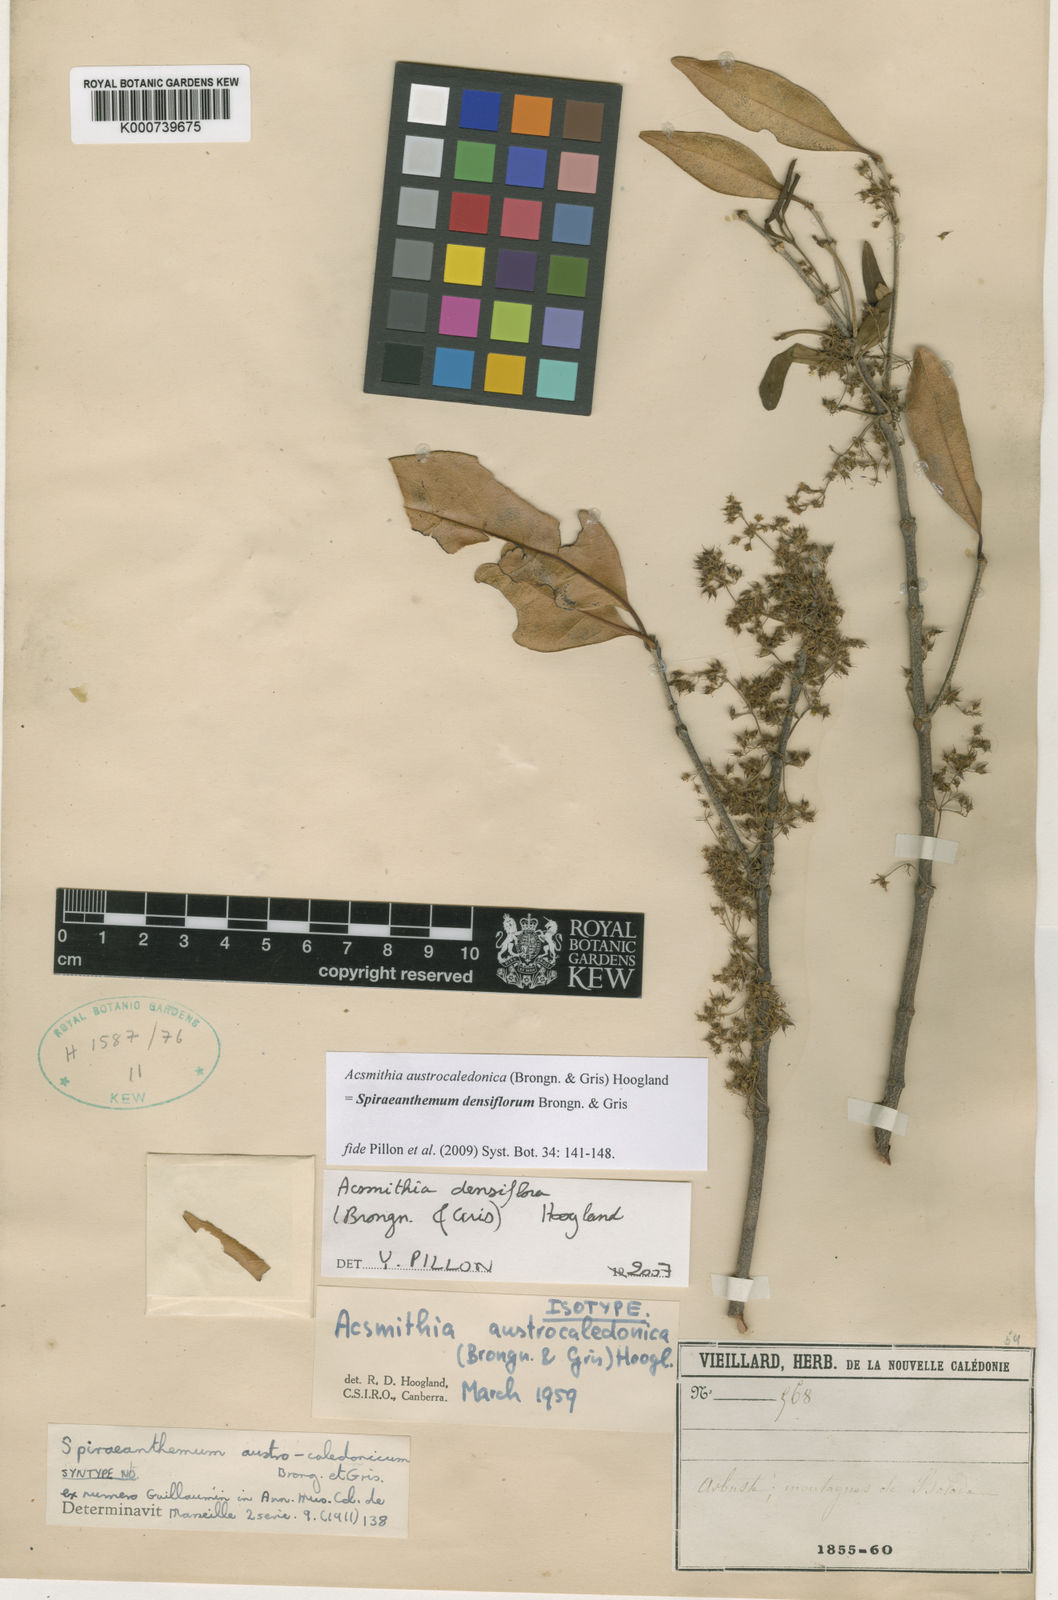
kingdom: Plantae
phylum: Tracheophyta
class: Magnoliopsida
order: Oxalidales
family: Cunoniaceae
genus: Spiraeanthemum
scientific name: Spiraeanthemum densiflorum
